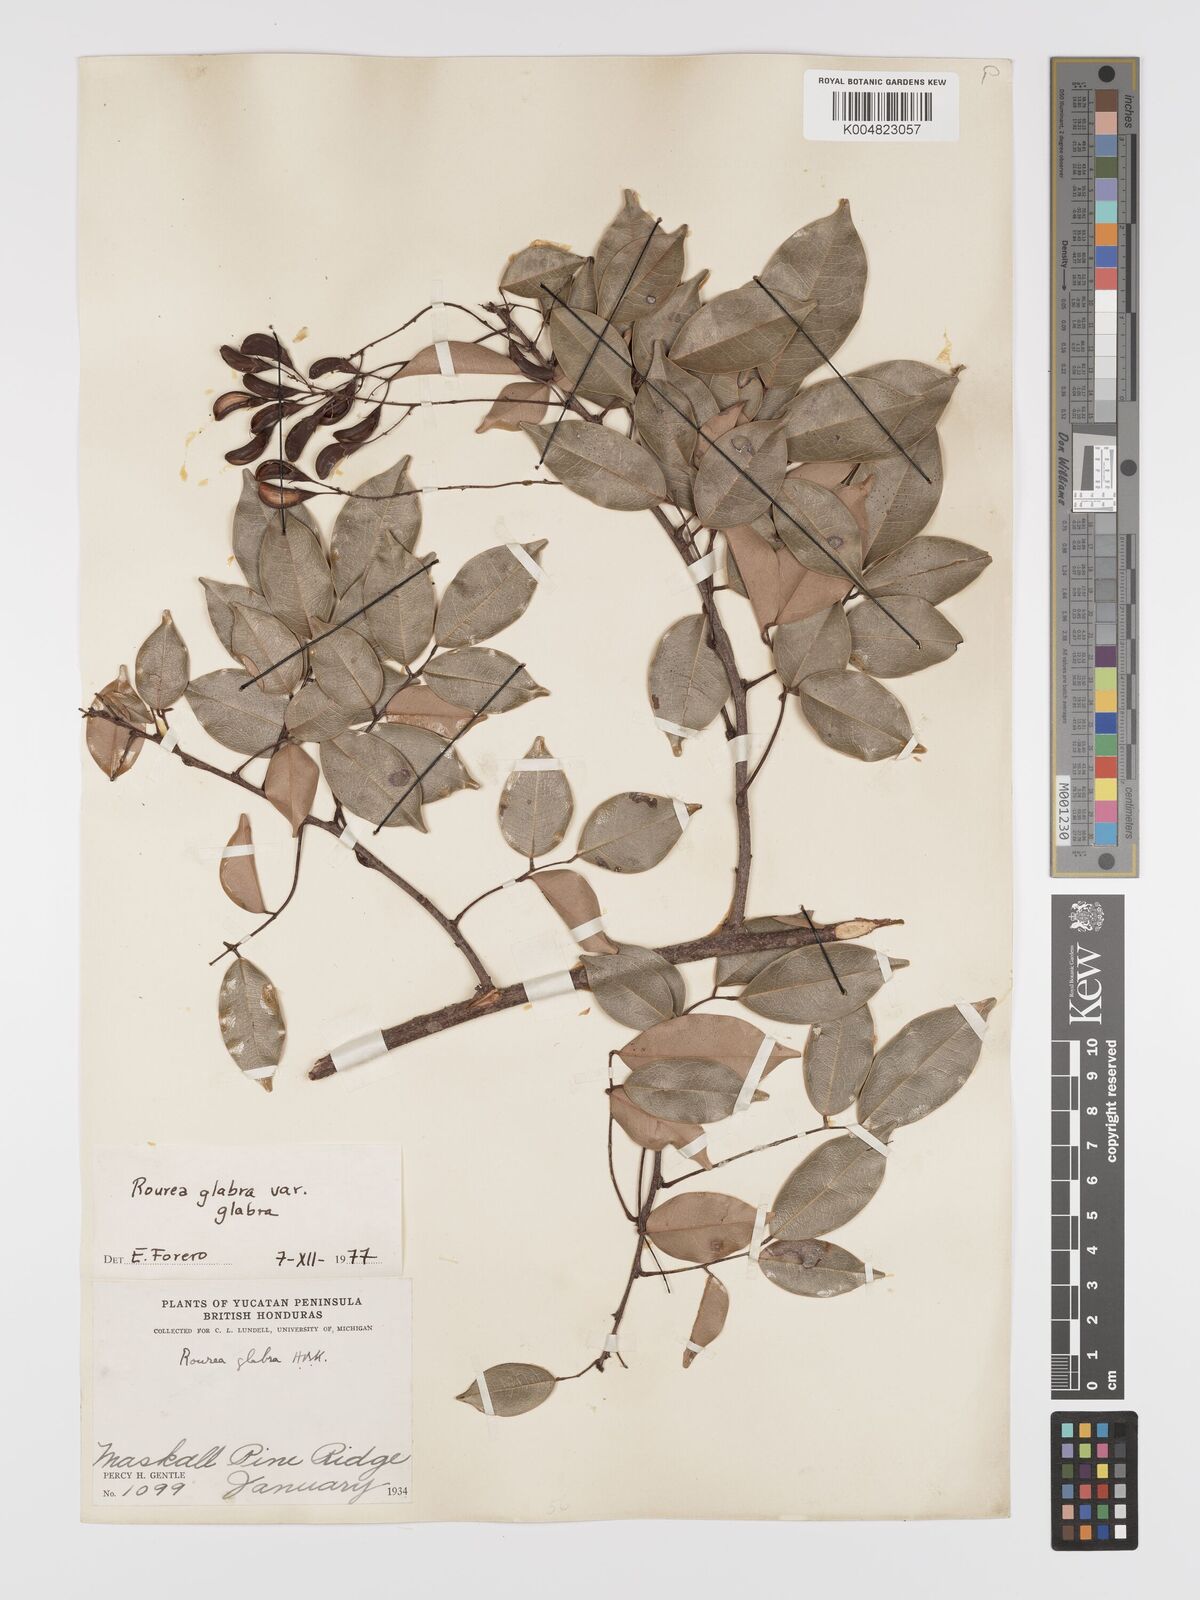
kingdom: Plantae
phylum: Tracheophyta
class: Magnoliopsida
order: Oxalidales
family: Connaraceae
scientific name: Connaraceae
